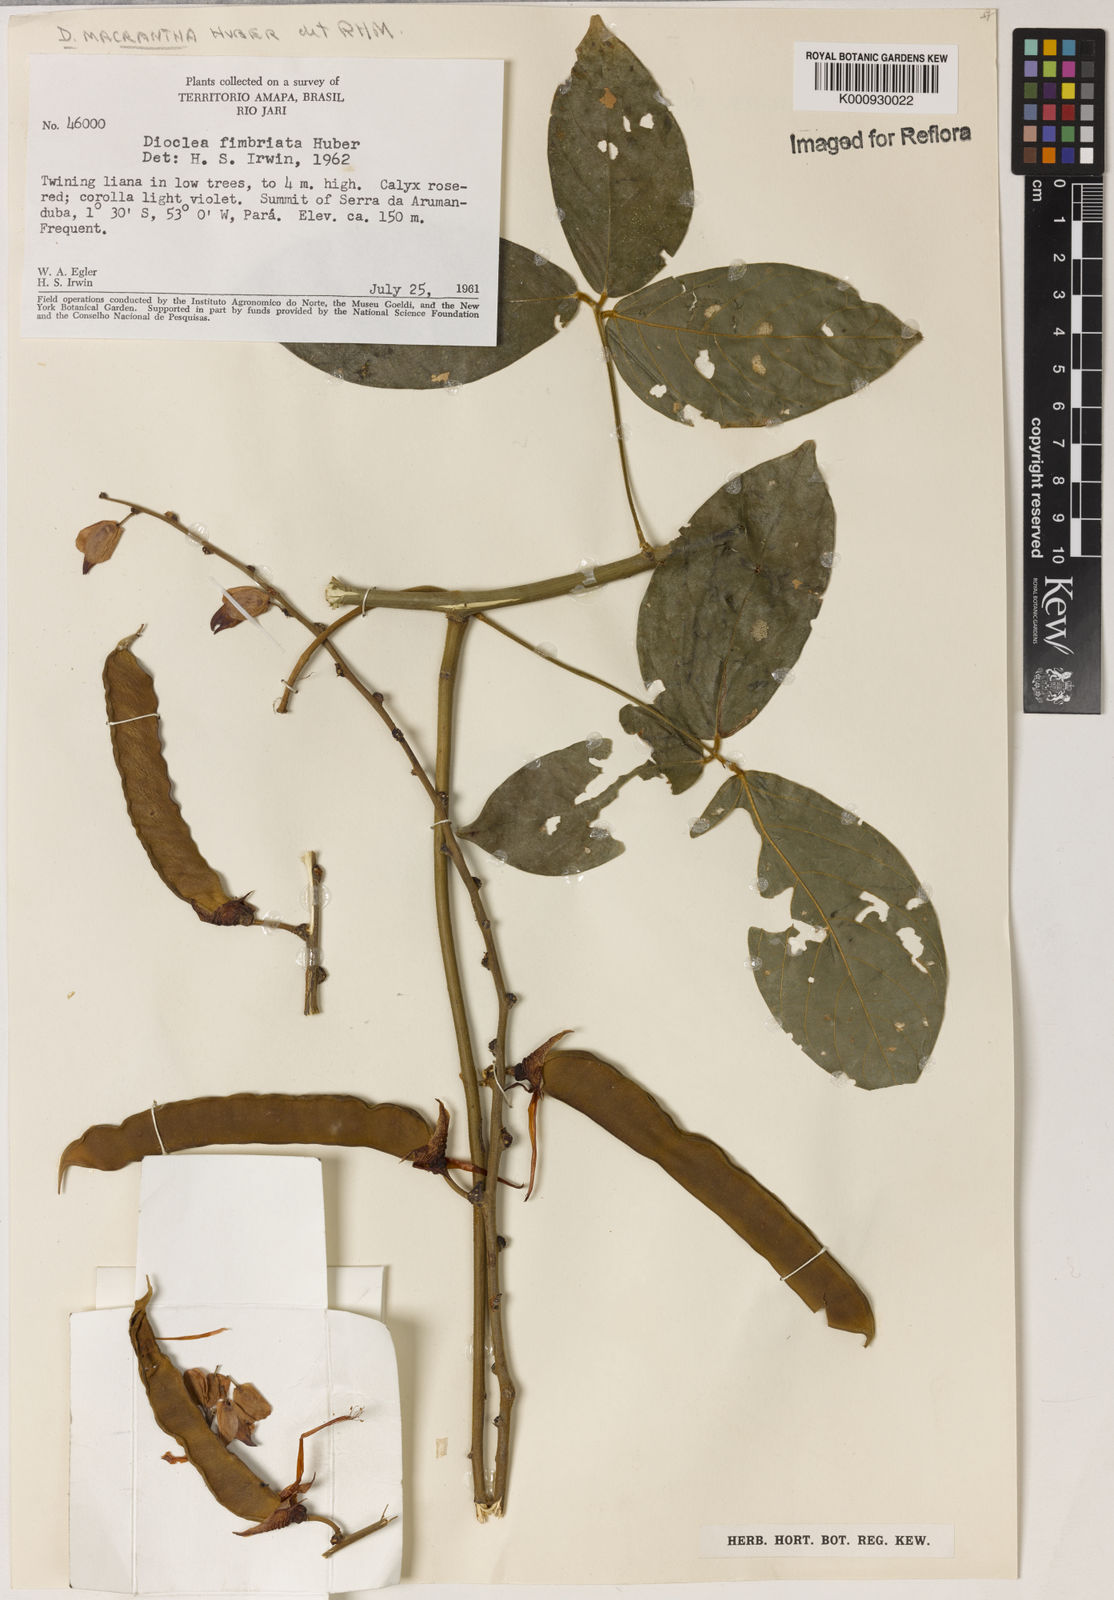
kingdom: Plantae
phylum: Tracheophyta
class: Magnoliopsida
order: Fabales
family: Fabaceae
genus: Dioclea
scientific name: Dioclea macrantha
